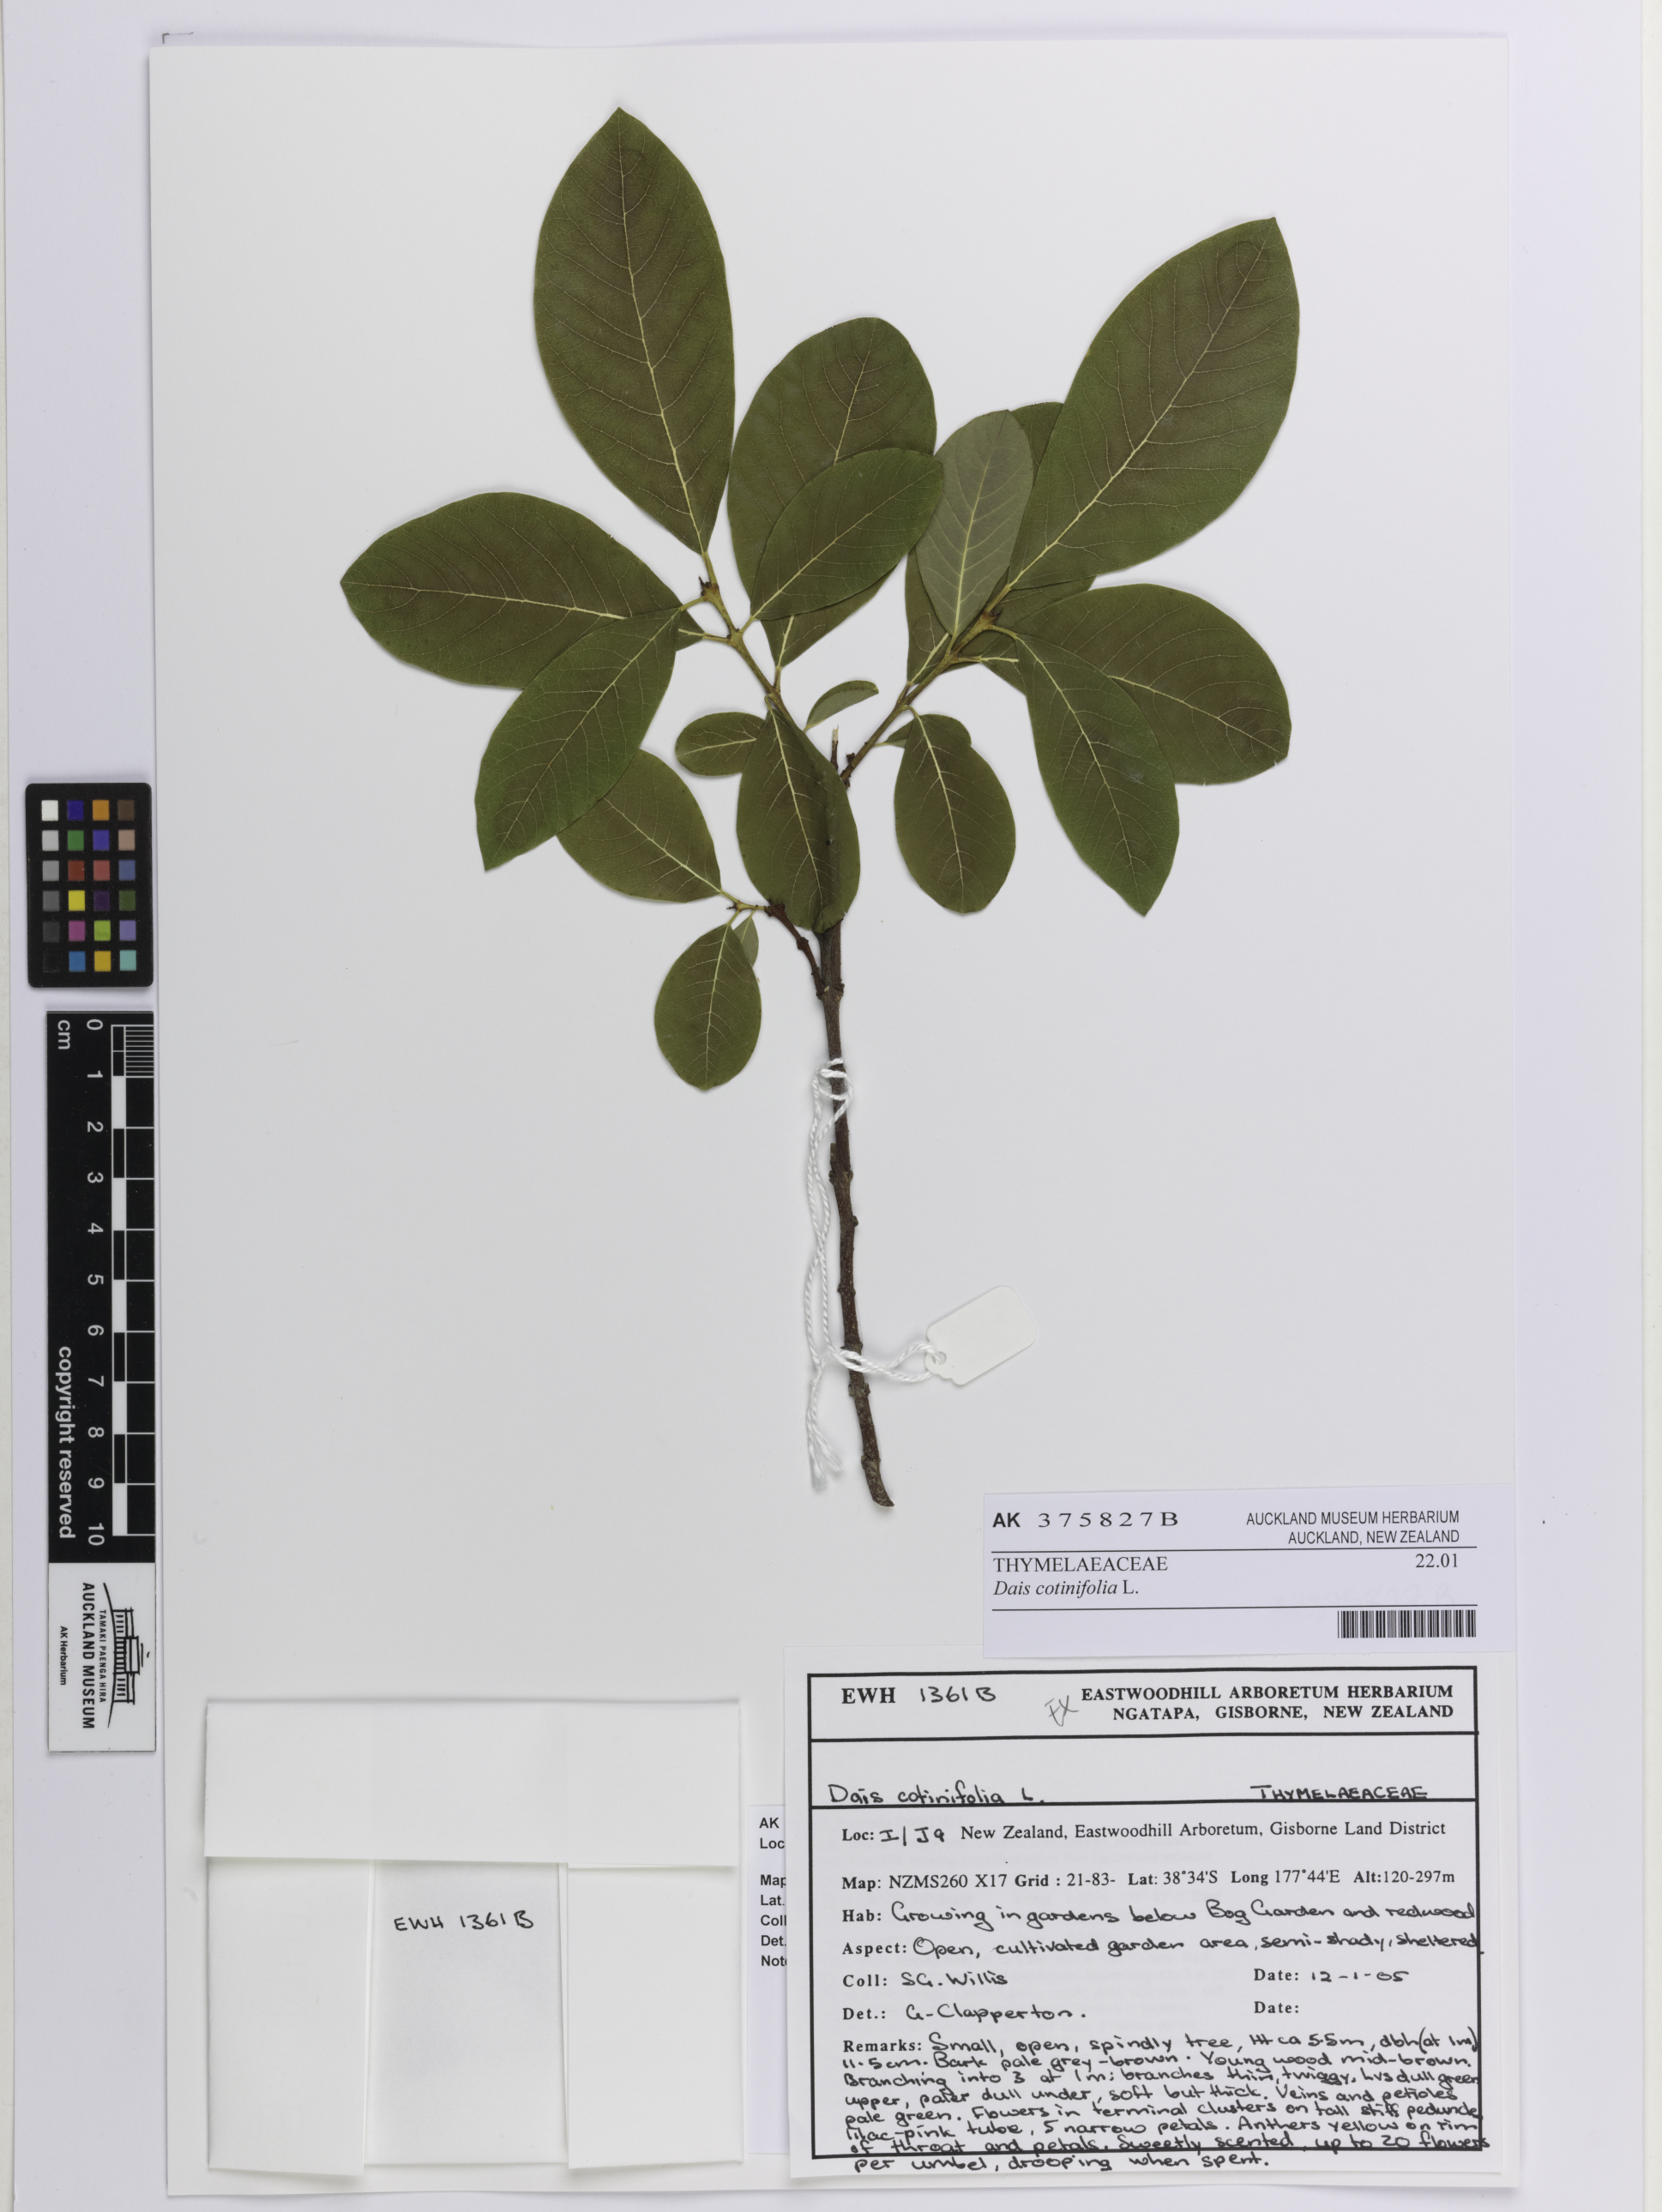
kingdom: Plantae
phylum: Tracheophyta
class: Magnoliopsida
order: Malvales
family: Thymelaeaceae
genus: Dais
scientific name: Dais cotinifolia
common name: Pompon tree
